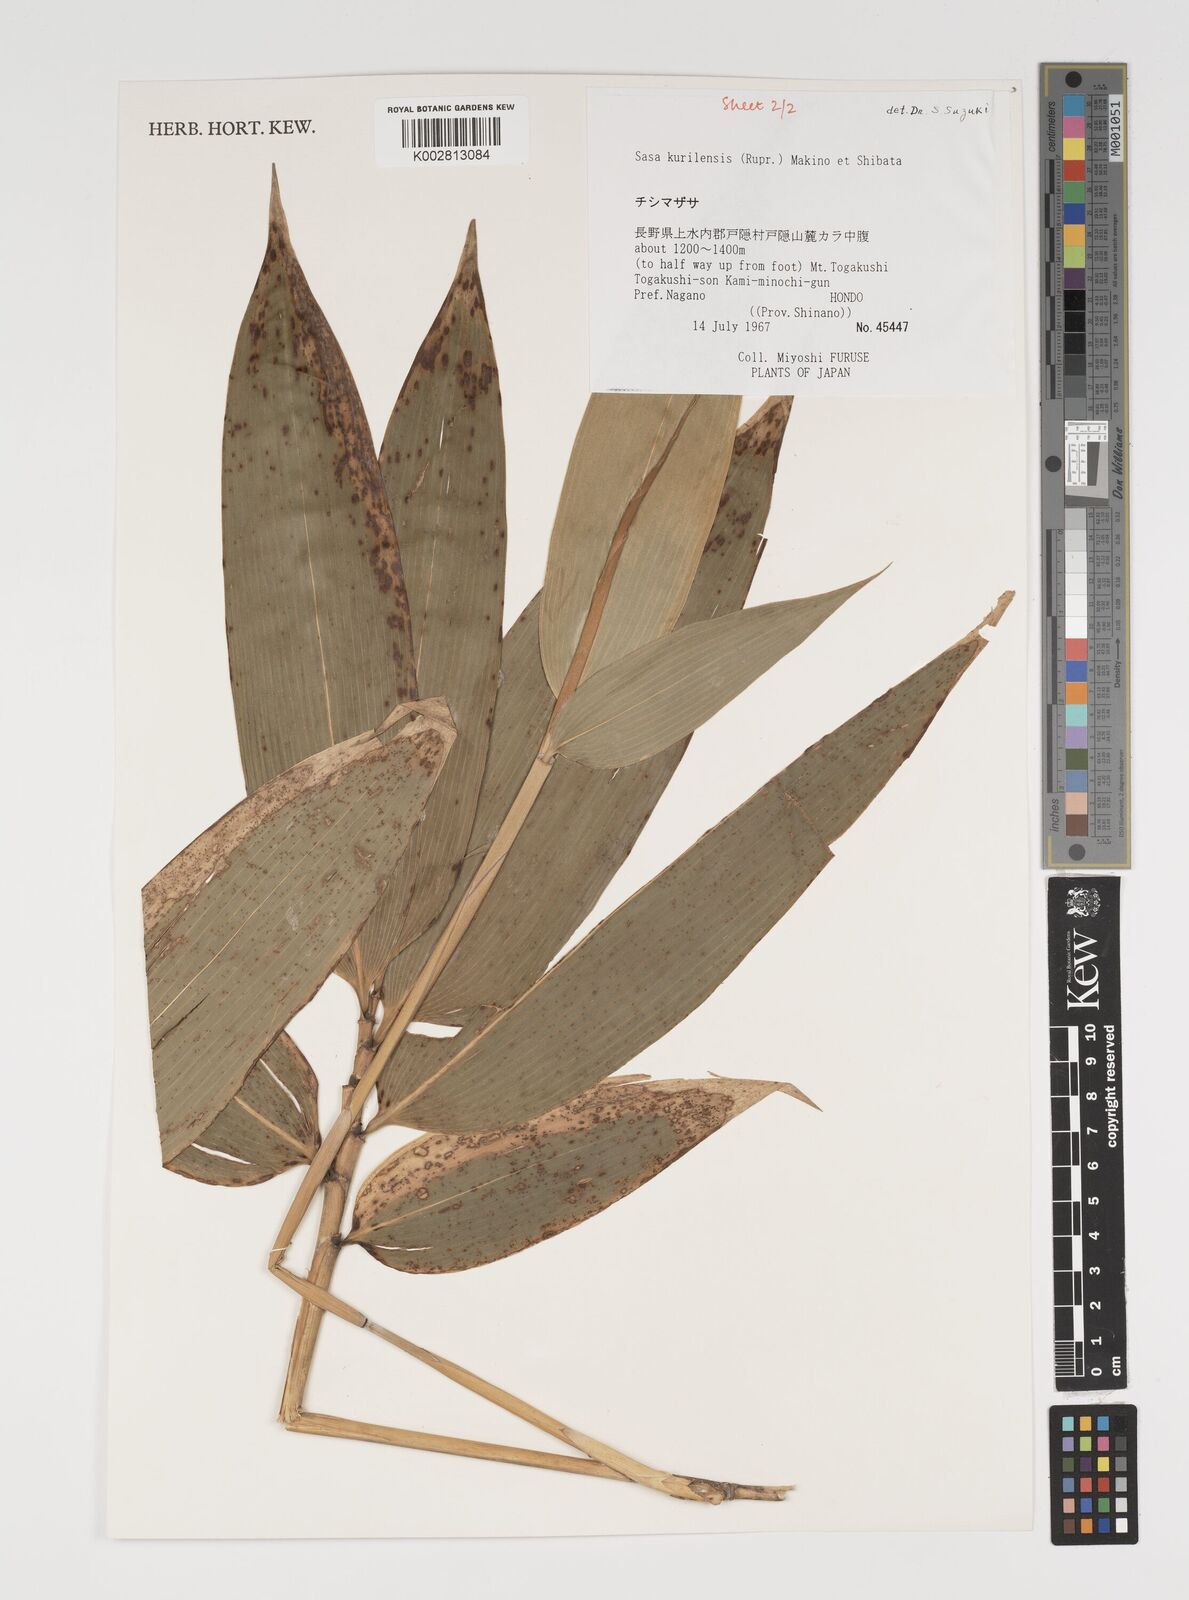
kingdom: Plantae
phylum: Tracheophyta
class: Liliopsida
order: Poales
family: Poaceae
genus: Sasa
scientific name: Sasa kurilensis
